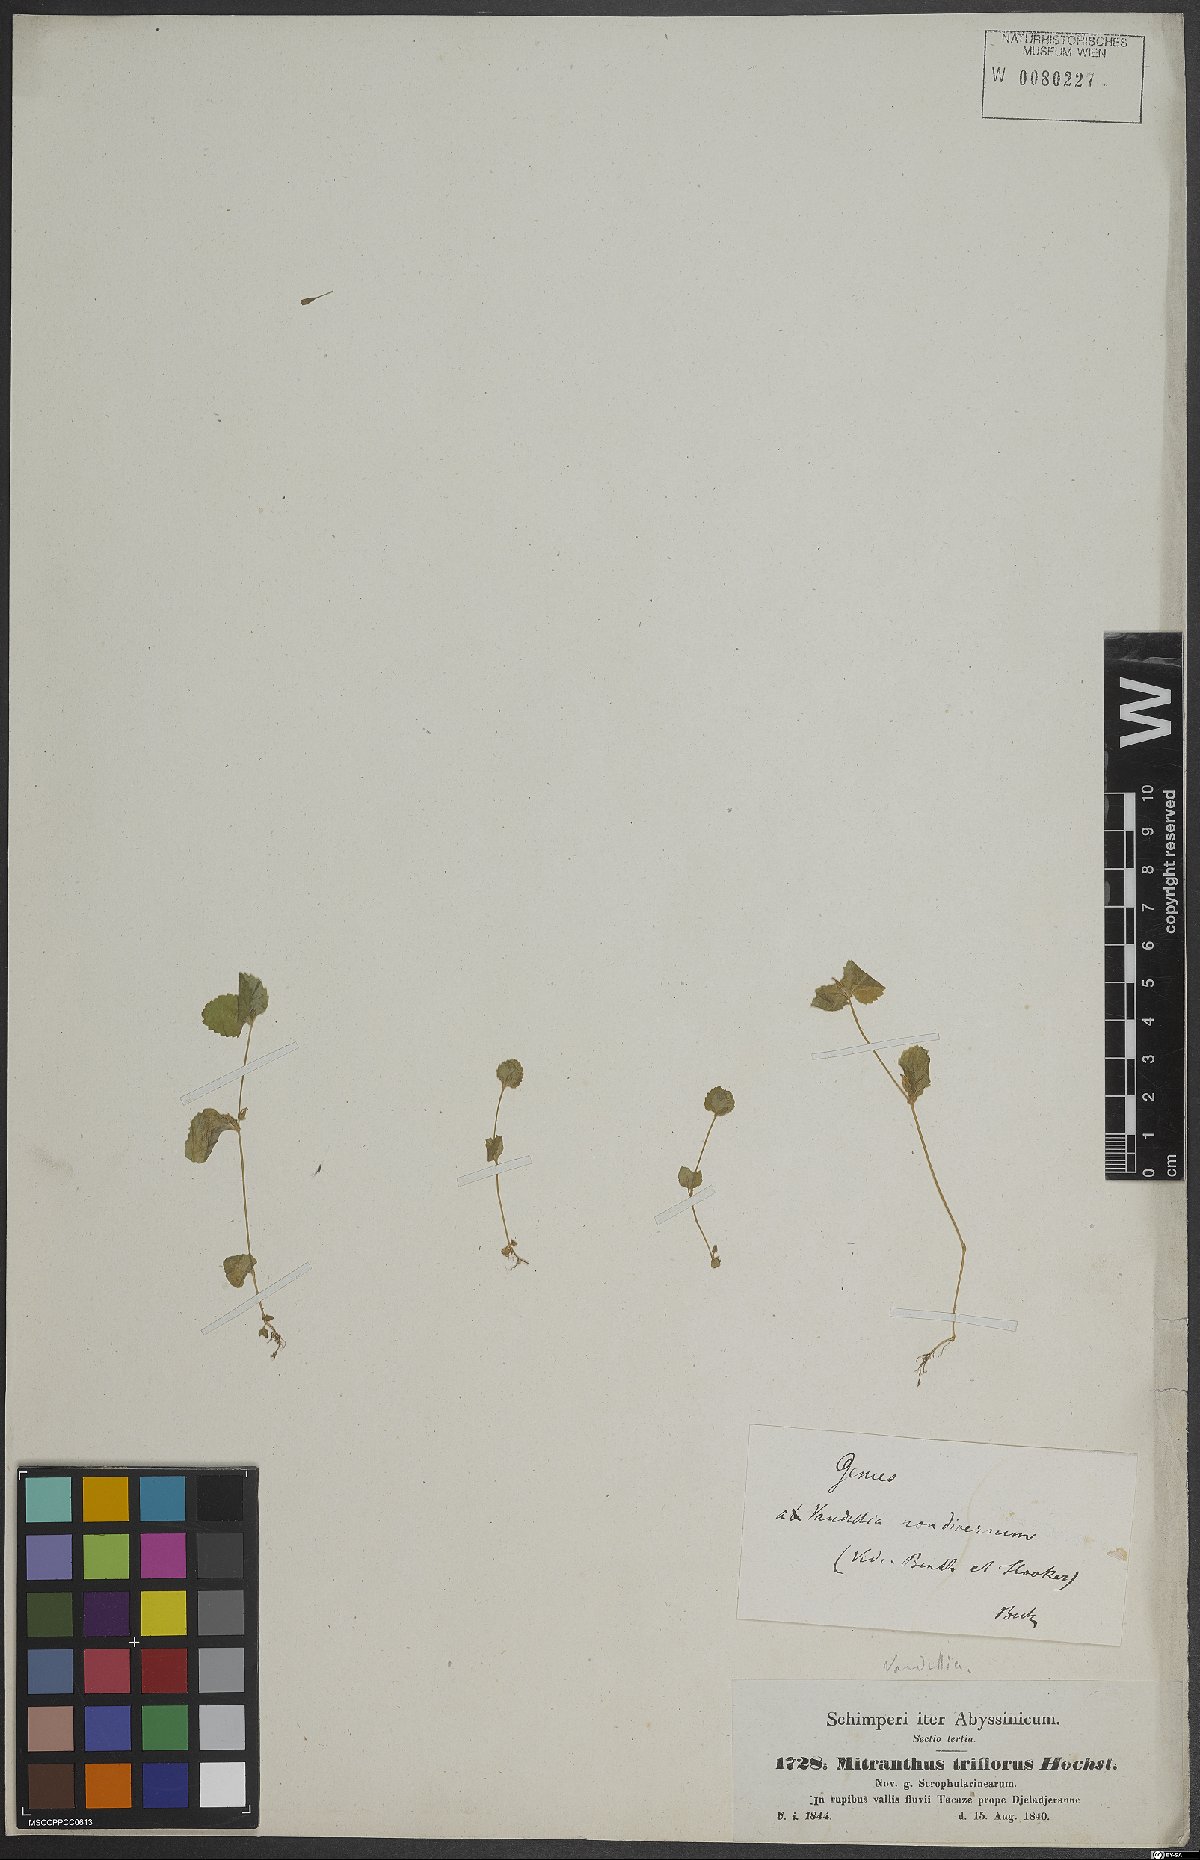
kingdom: Plantae
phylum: Tracheophyta
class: Magnoliopsida
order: Lamiales
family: Linderniaceae
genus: Vandellia
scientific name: Vandellia
